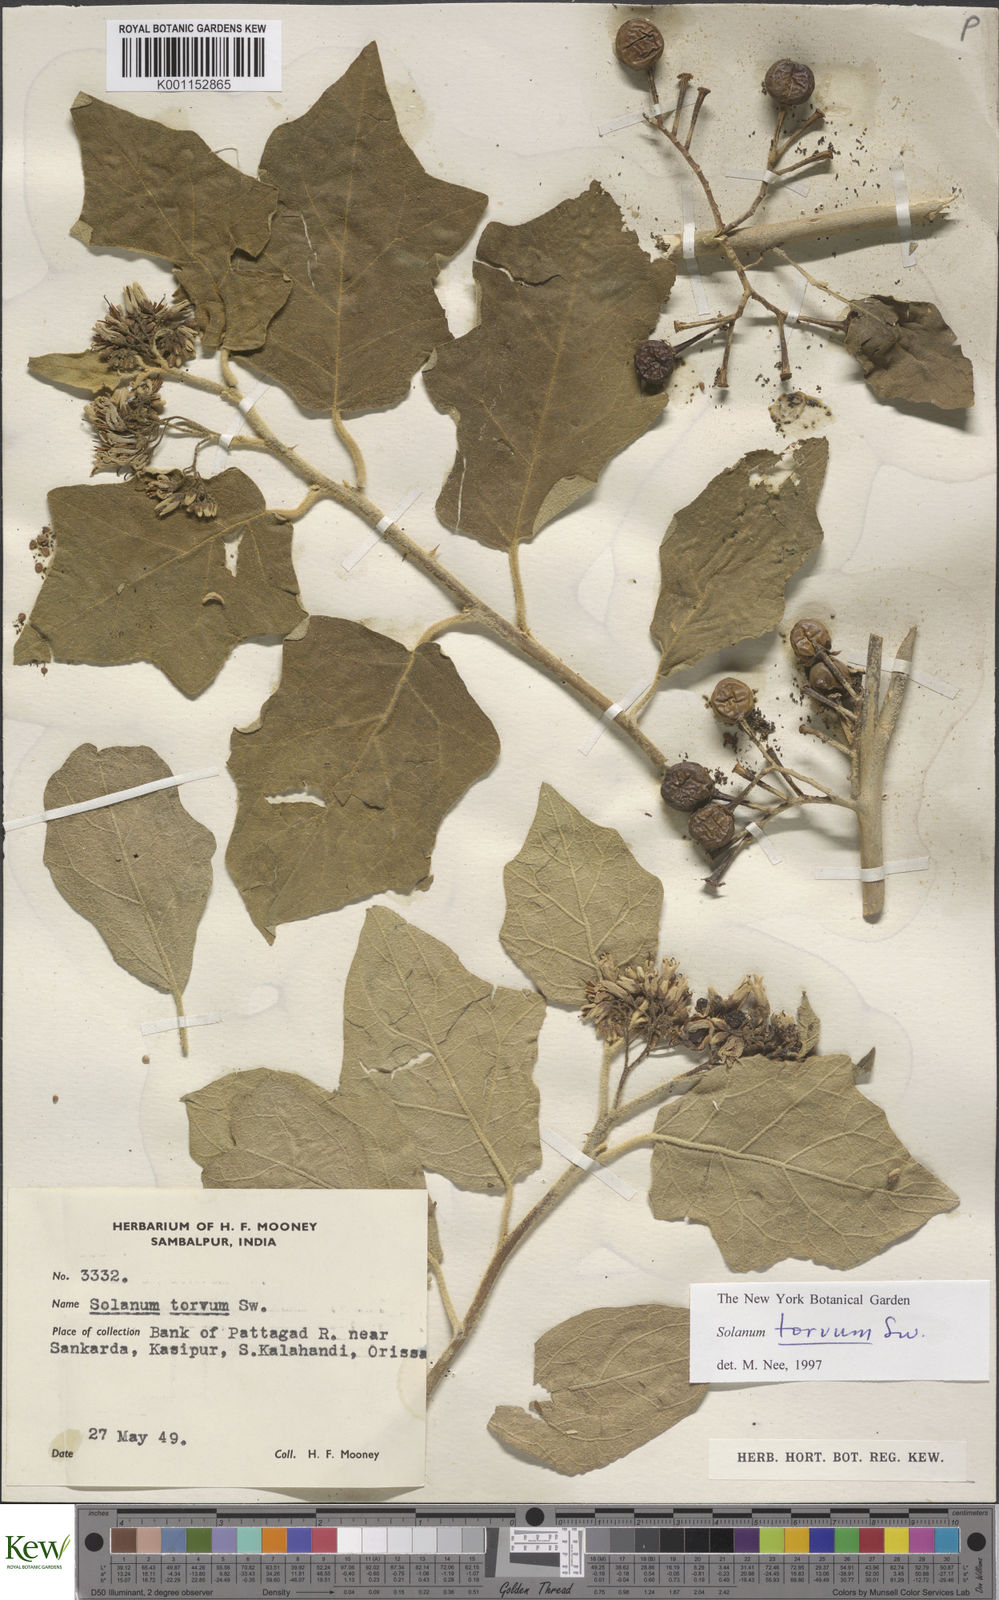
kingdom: Plantae
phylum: Tracheophyta
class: Magnoliopsida
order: Solanales
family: Solanaceae
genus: Solanum
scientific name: Solanum torvum
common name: Turkey berry
